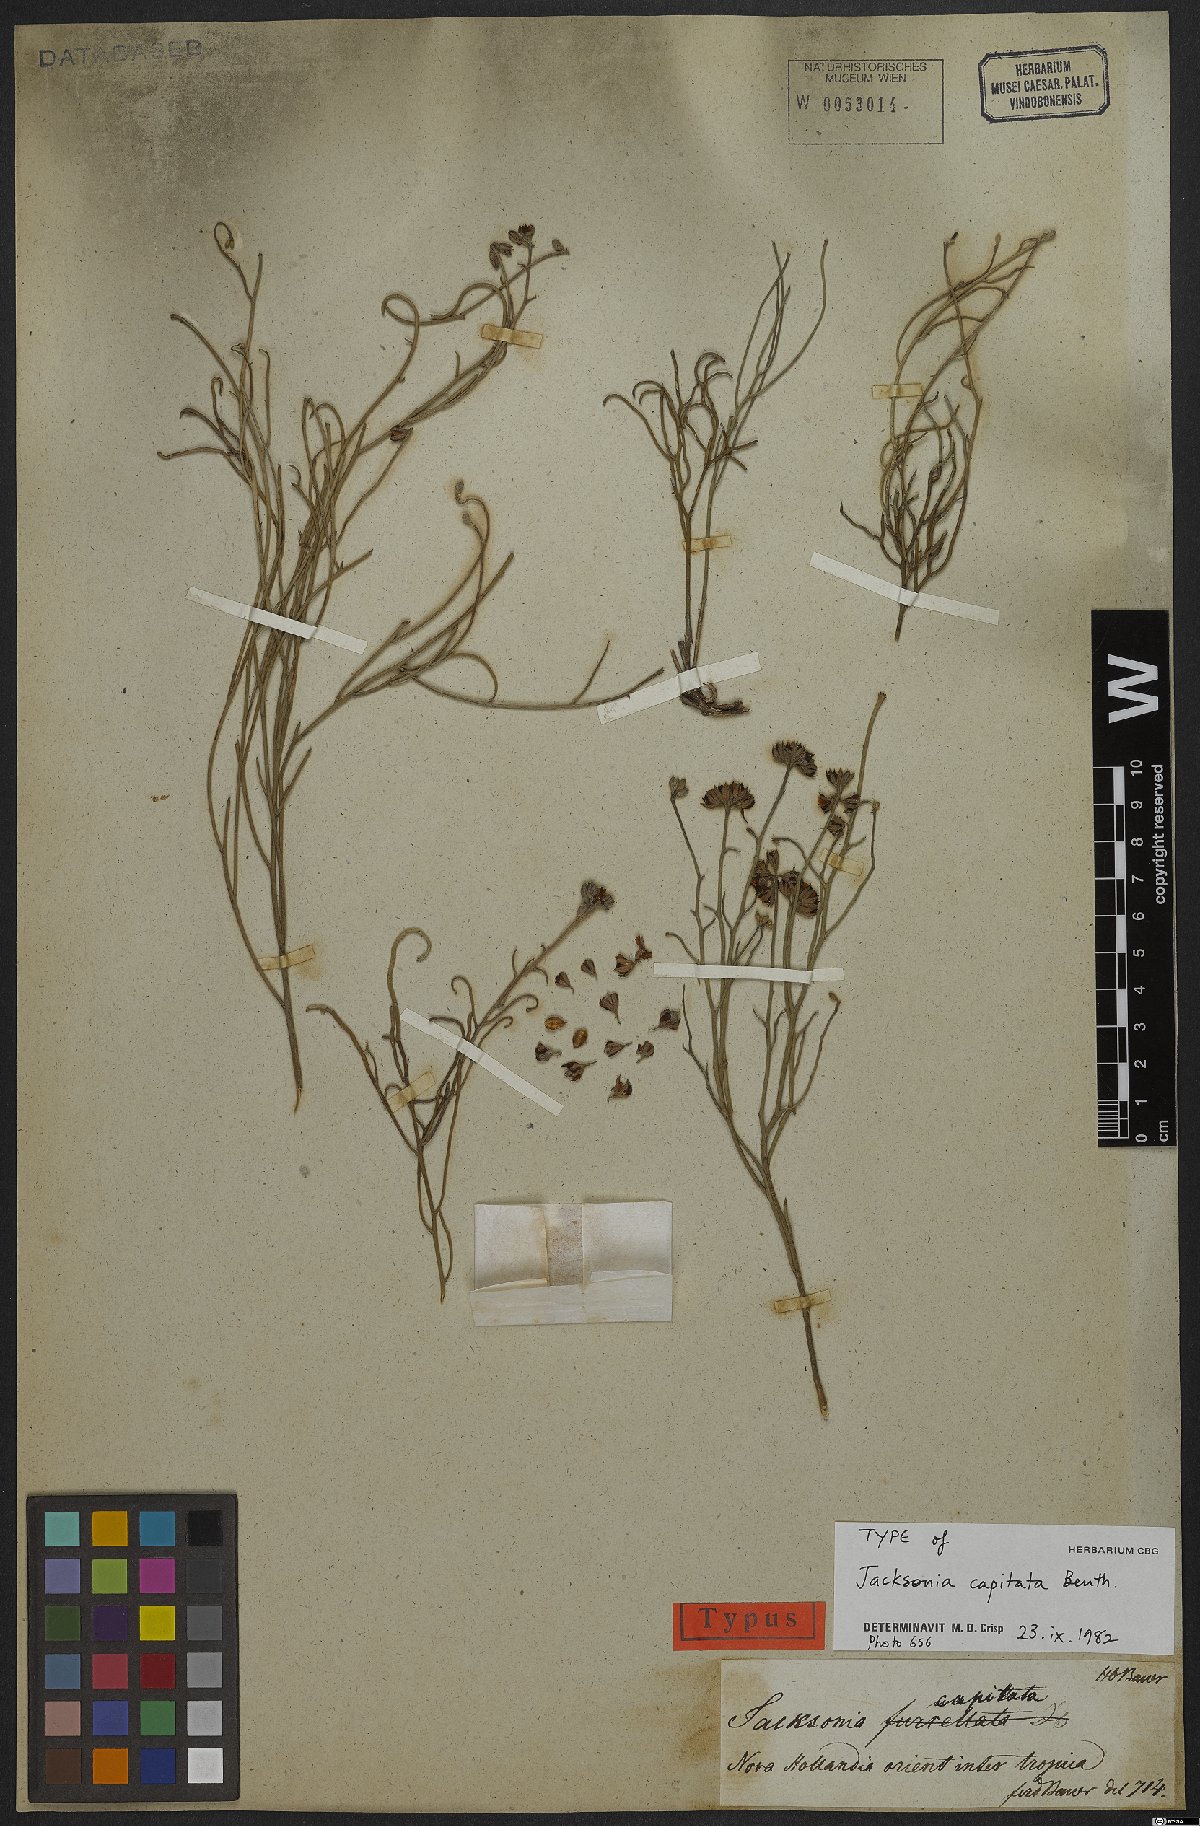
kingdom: Plantae
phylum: Tracheophyta
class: Magnoliopsida
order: Fabales
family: Fabaceae
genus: Jacksonia
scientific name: Jacksonia capitata
